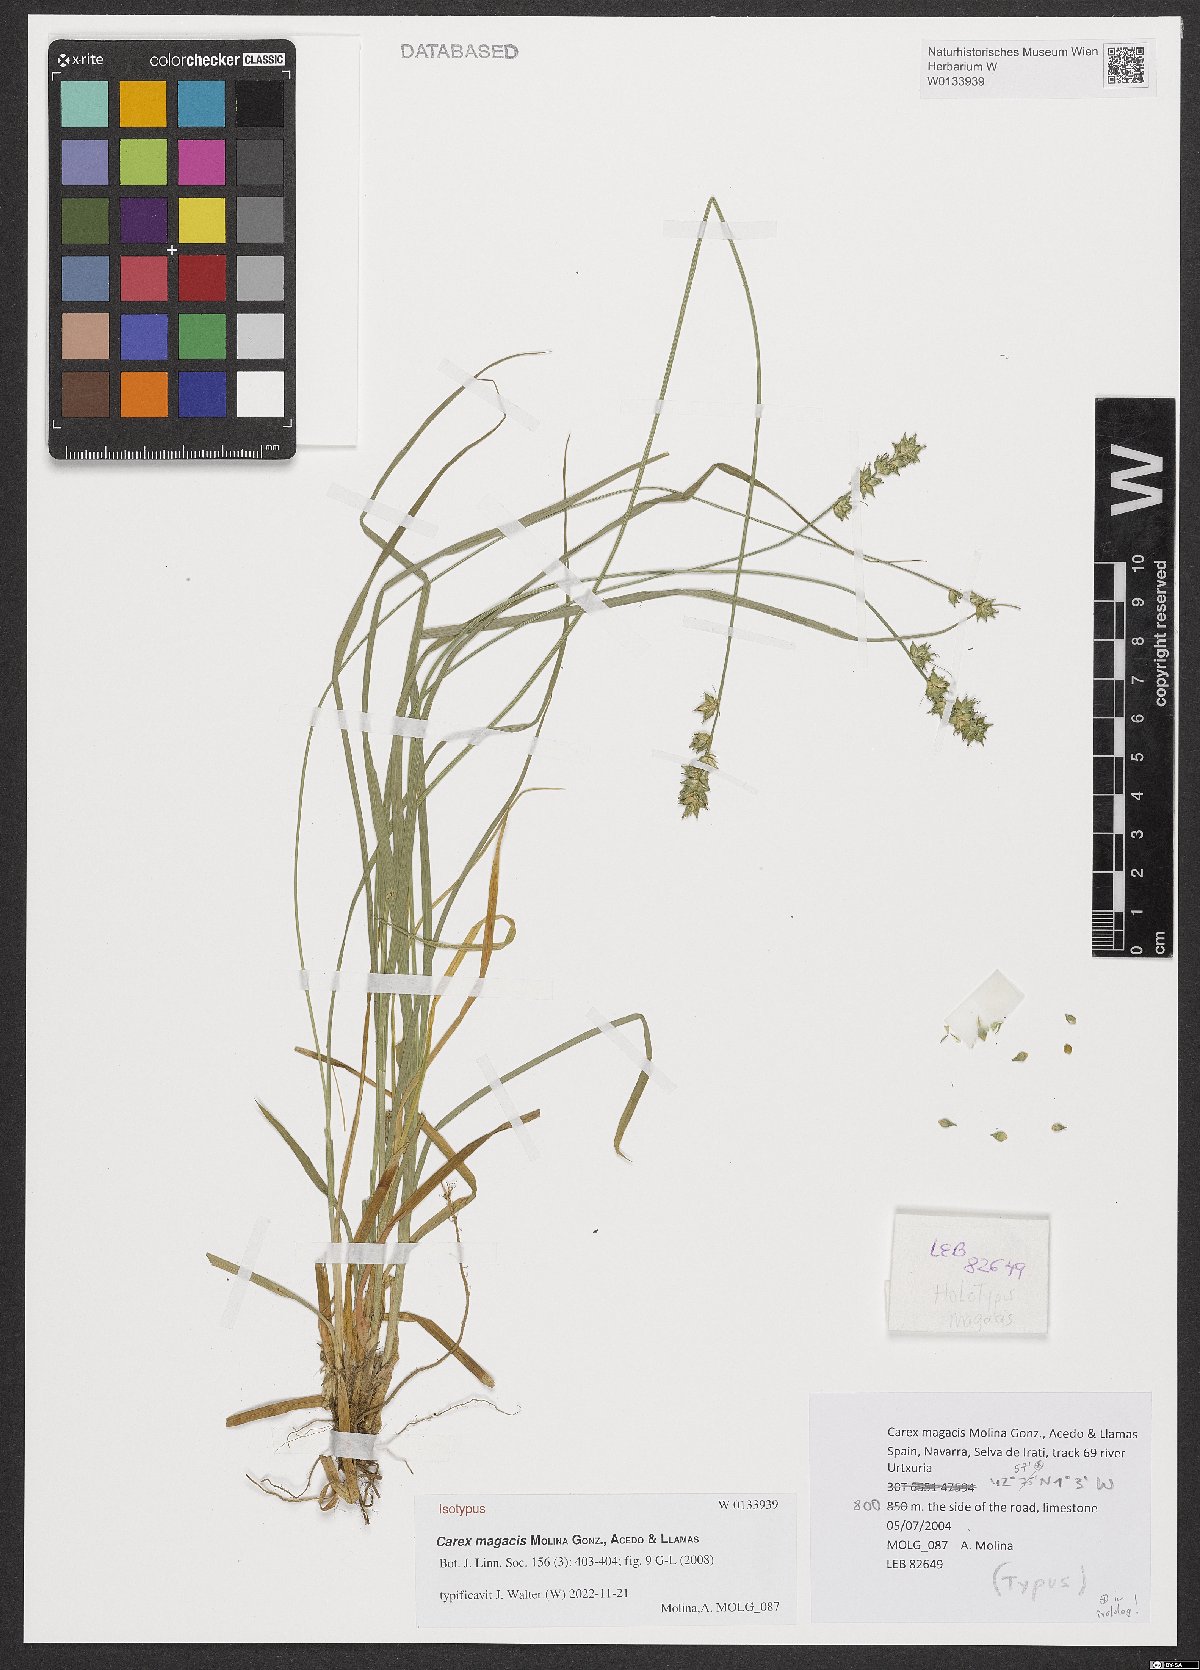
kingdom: Plantae
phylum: Tracheophyta
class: Liliopsida
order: Poales
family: Cyperaceae
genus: Carex
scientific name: Carex magacis
